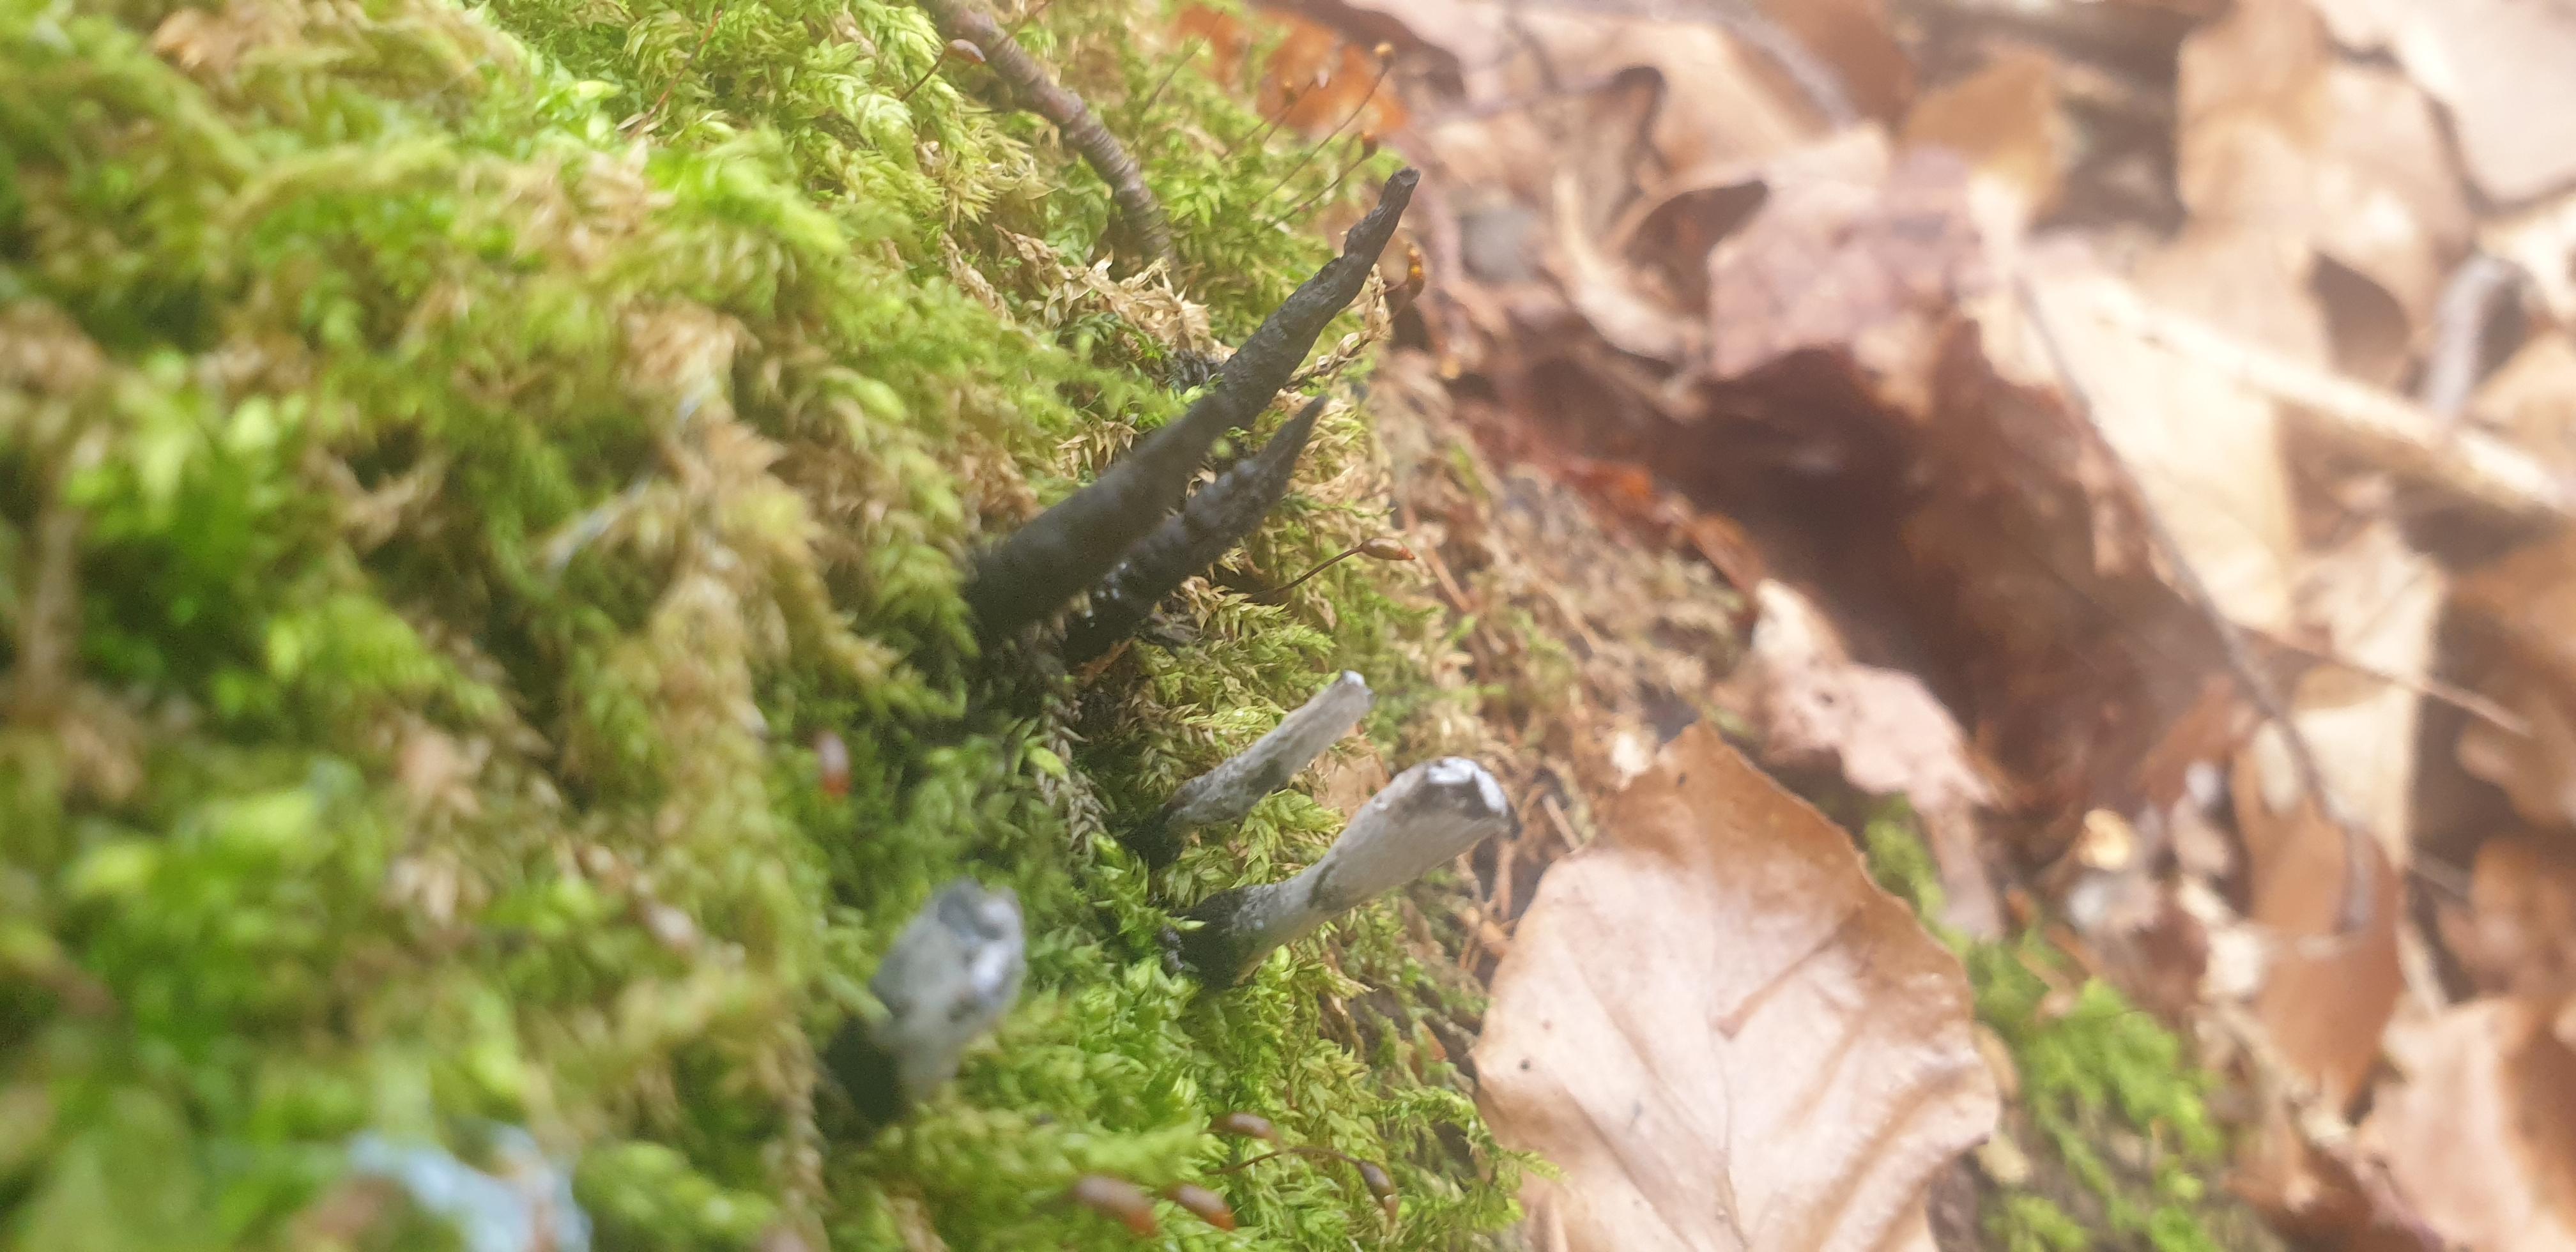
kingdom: Fungi
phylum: Ascomycota
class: Sordariomycetes
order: Xylariales
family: Xylariaceae
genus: Xylaria
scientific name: Xylaria hypoxylon
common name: grenet stødsvamp
